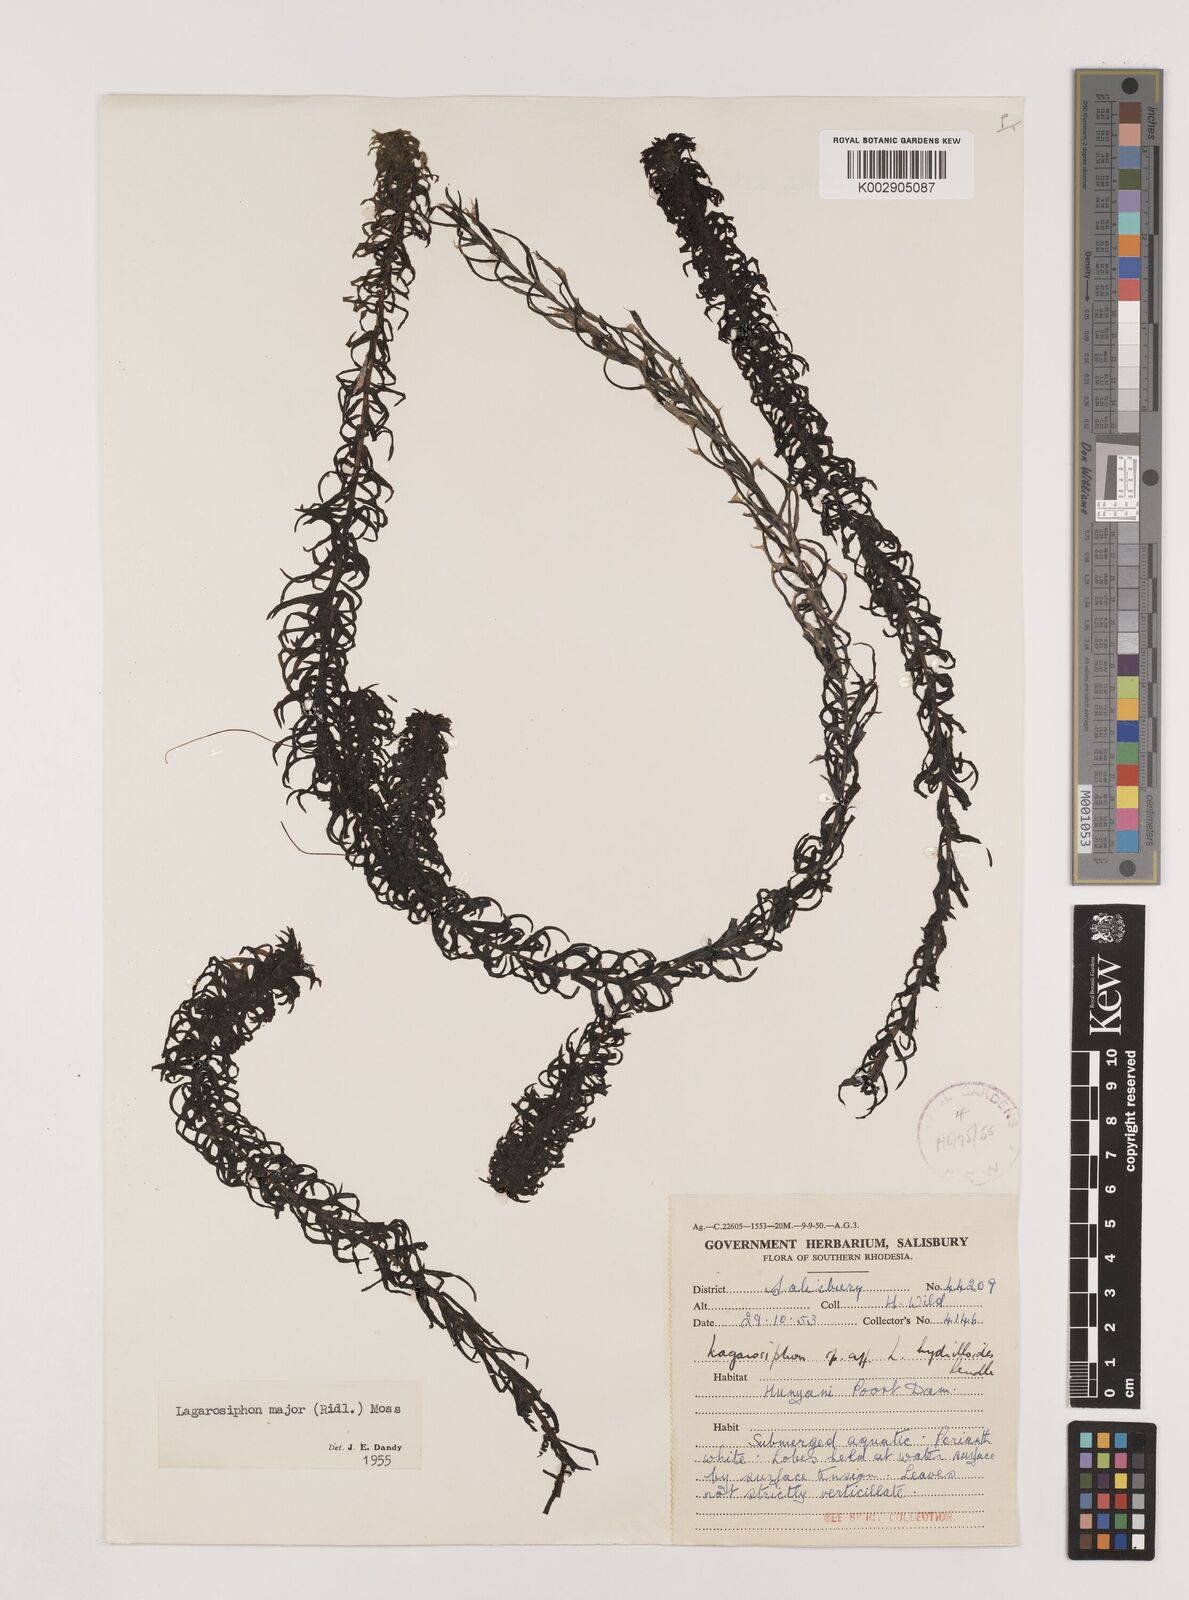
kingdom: Plantae
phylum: Tracheophyta
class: Liliopsida
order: Alismatales
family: Hydrocharitaceae
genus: Lagarosiphon
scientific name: Lagarosiphon major
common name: Curly waterweed
